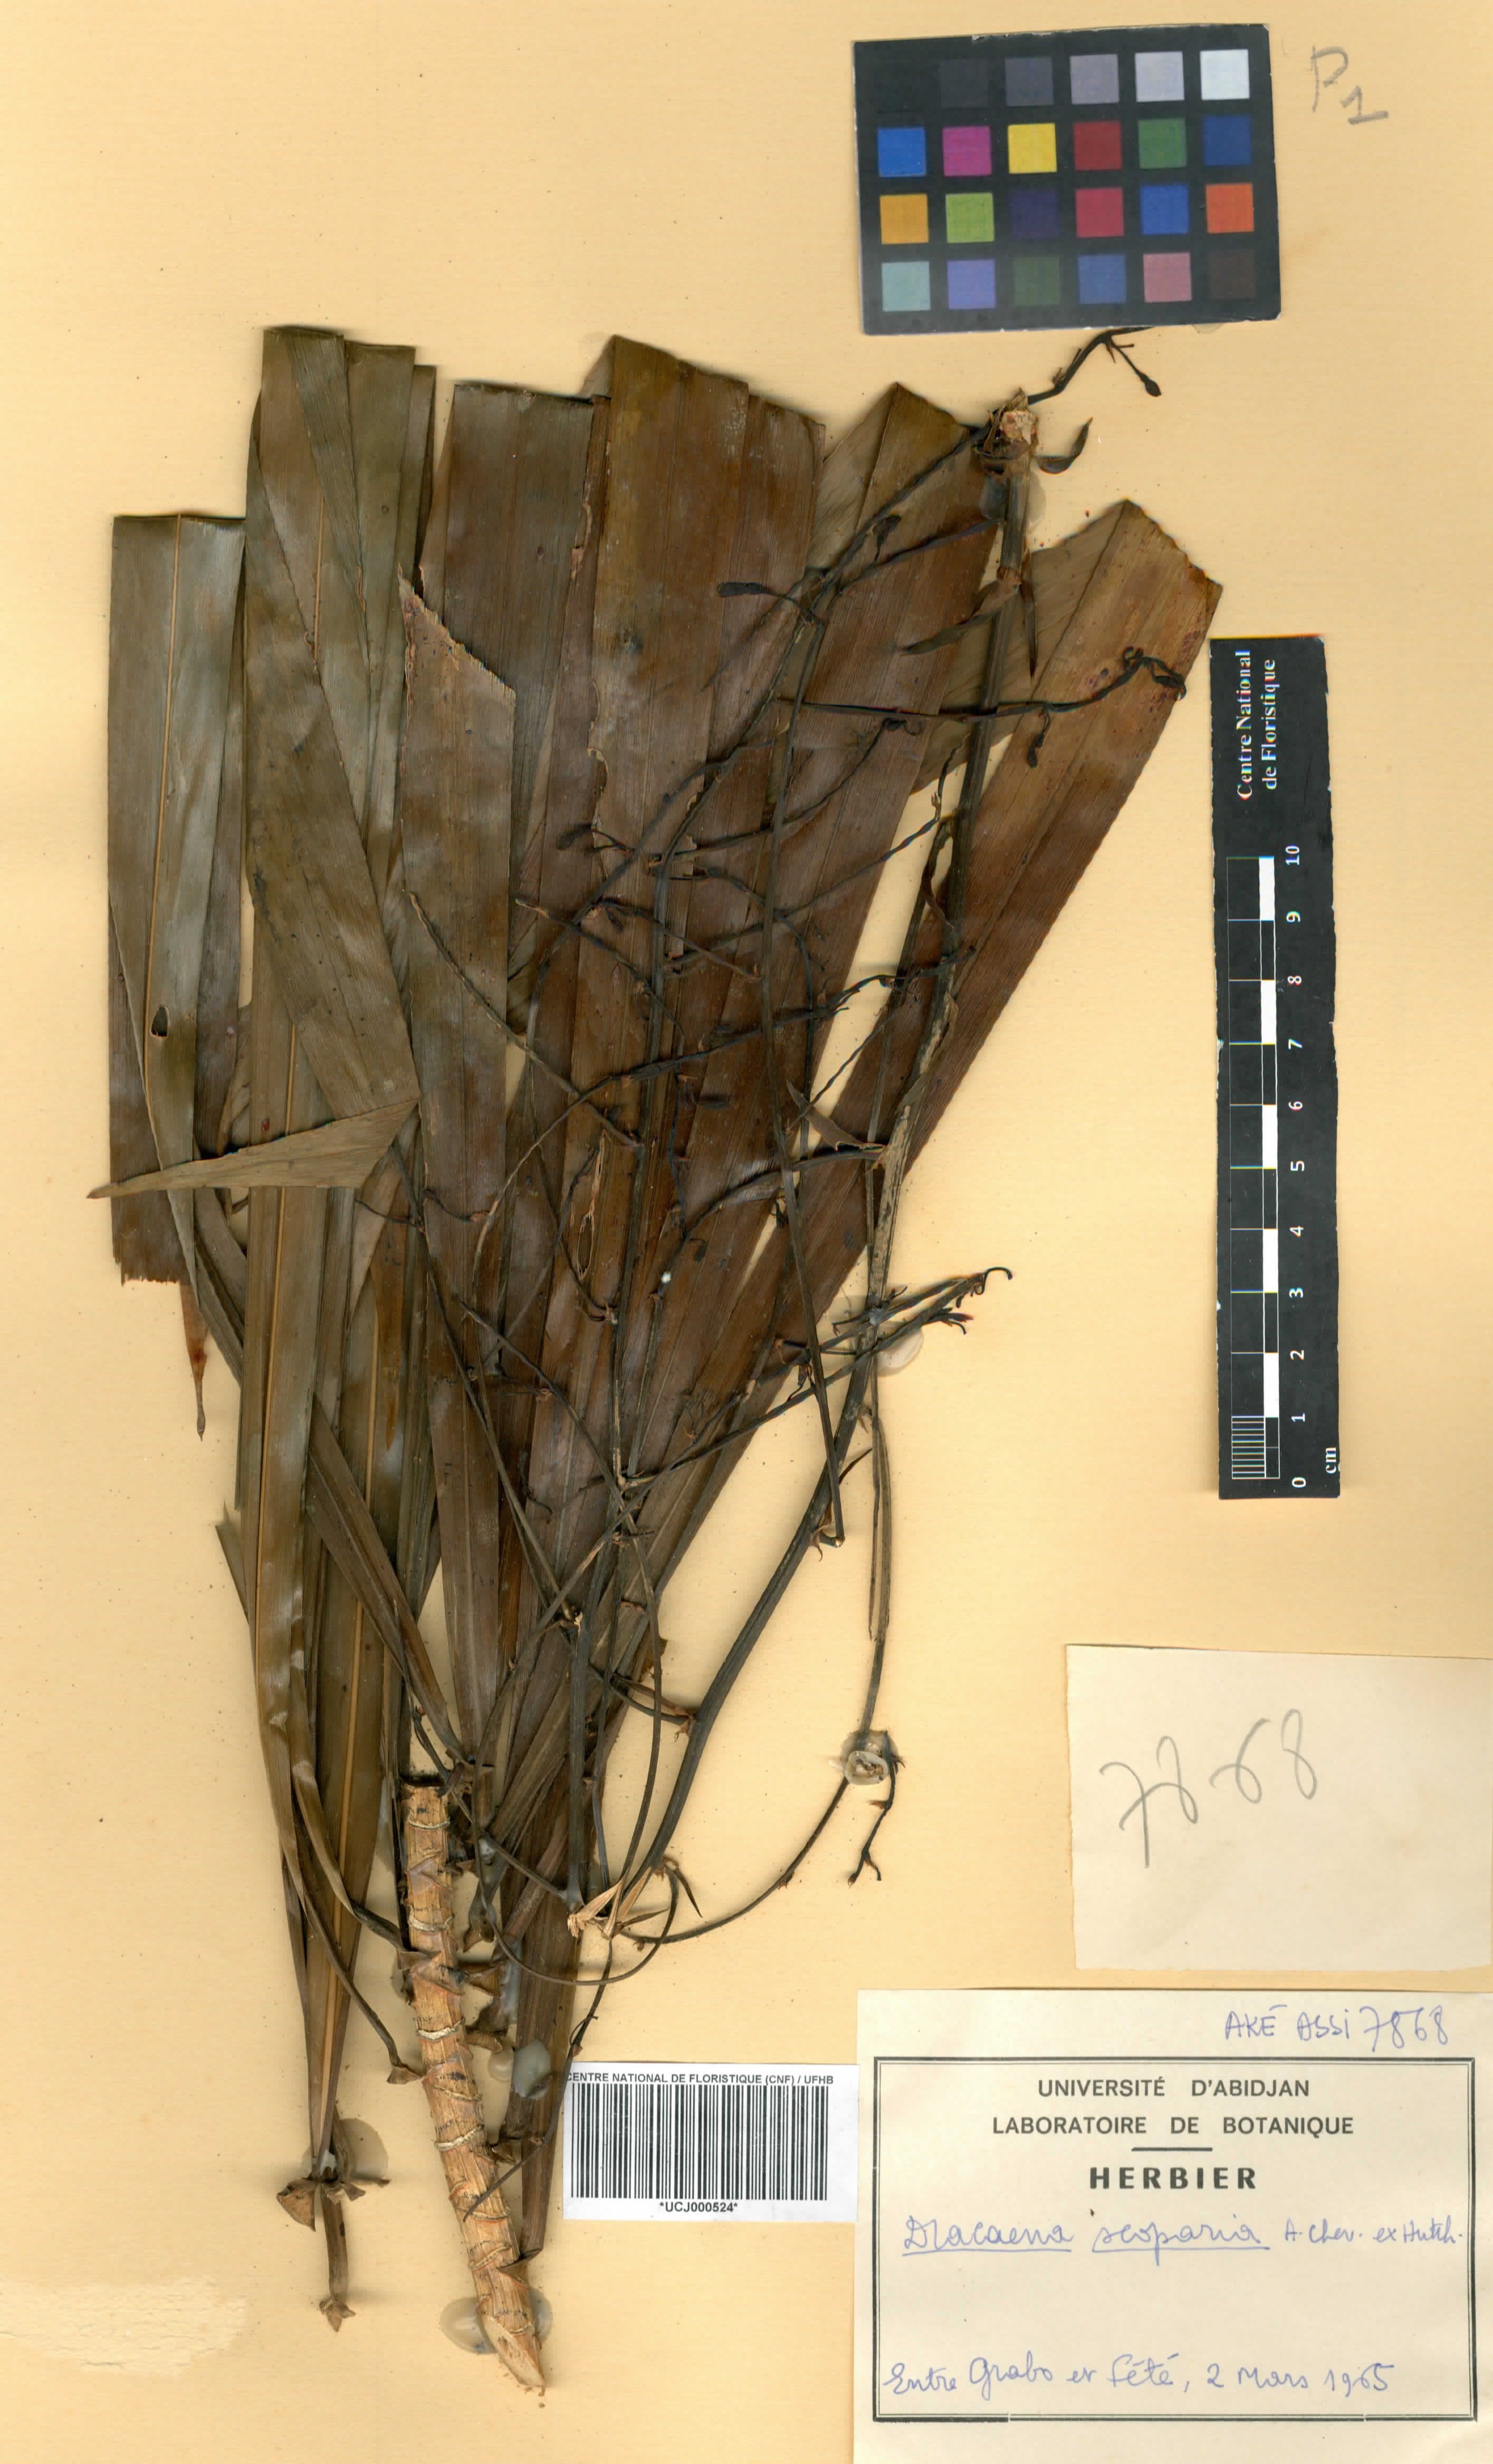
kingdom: Plantae
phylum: Tracheophyta
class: Liliopsida
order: Asparagales
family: Asparagaceae
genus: Dracaena
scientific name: Dracaena cerasifera
